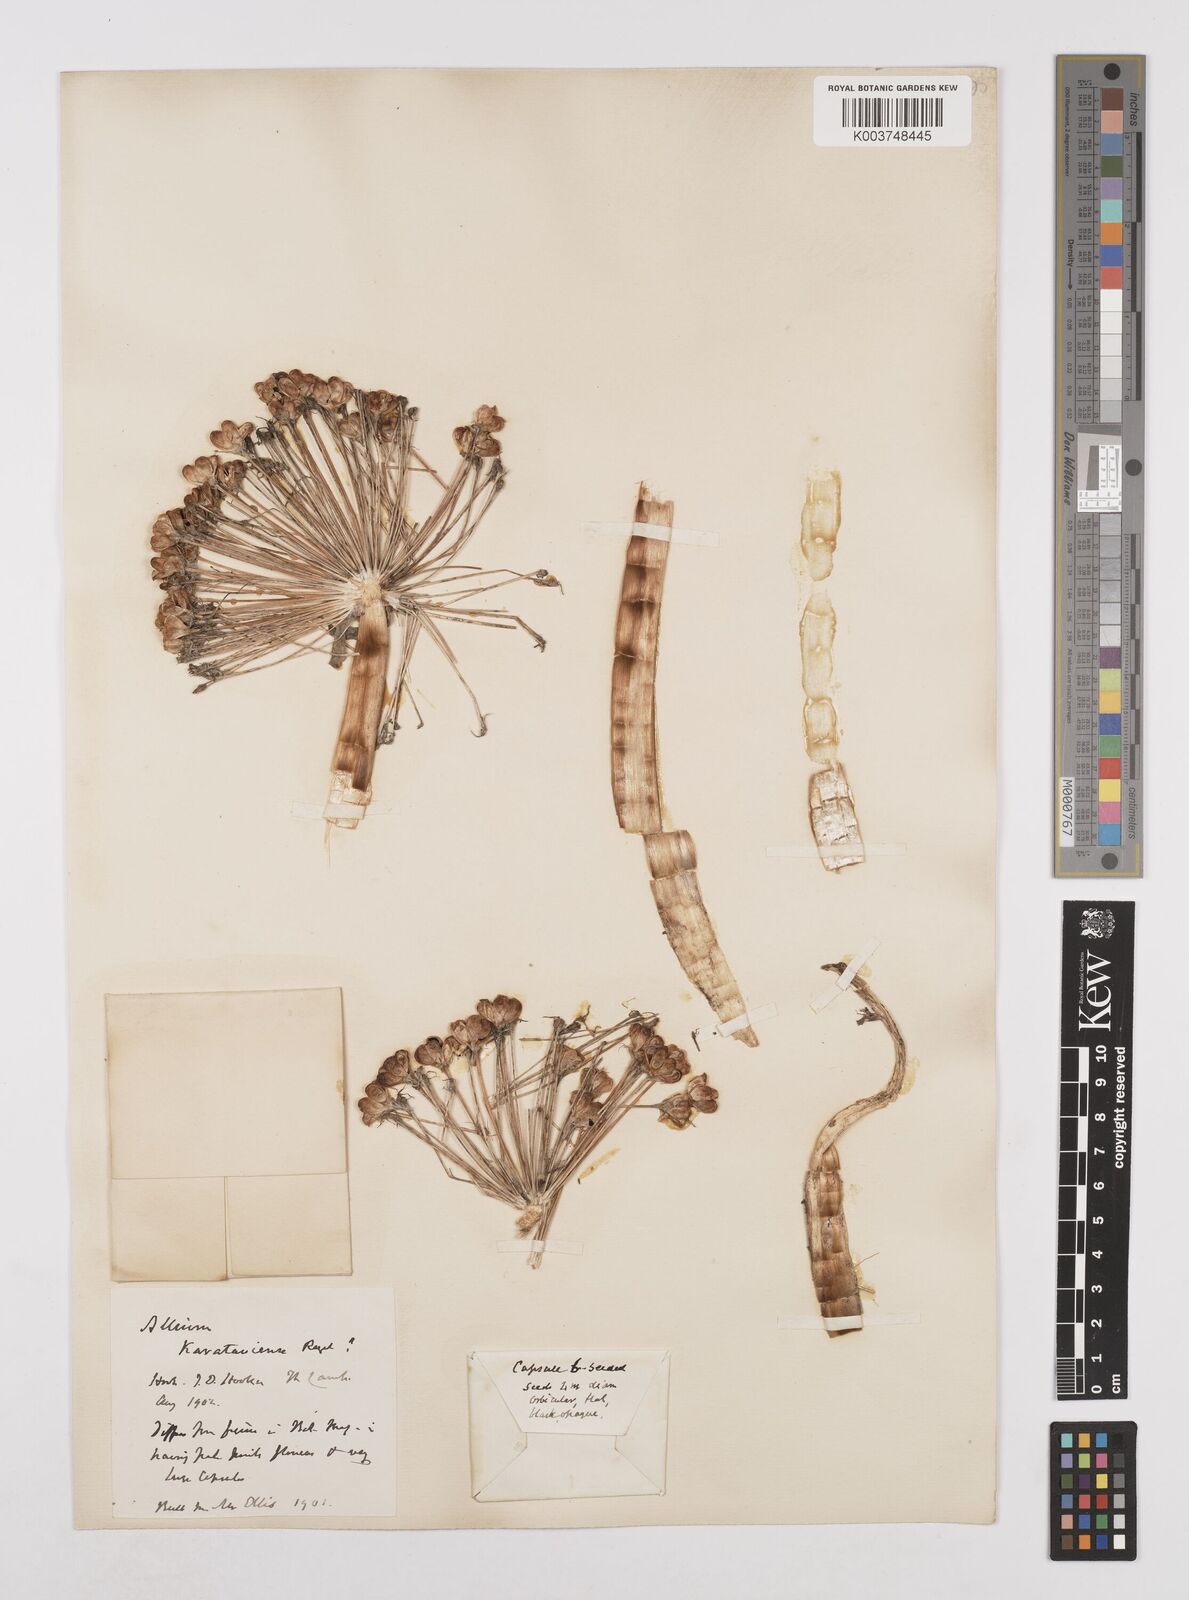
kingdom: Plantae
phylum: Tracheophyta
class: Liliopsida
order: Asparagales
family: Amaryllidaceae
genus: Allium
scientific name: Allium karataviense
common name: Turkestan onion
